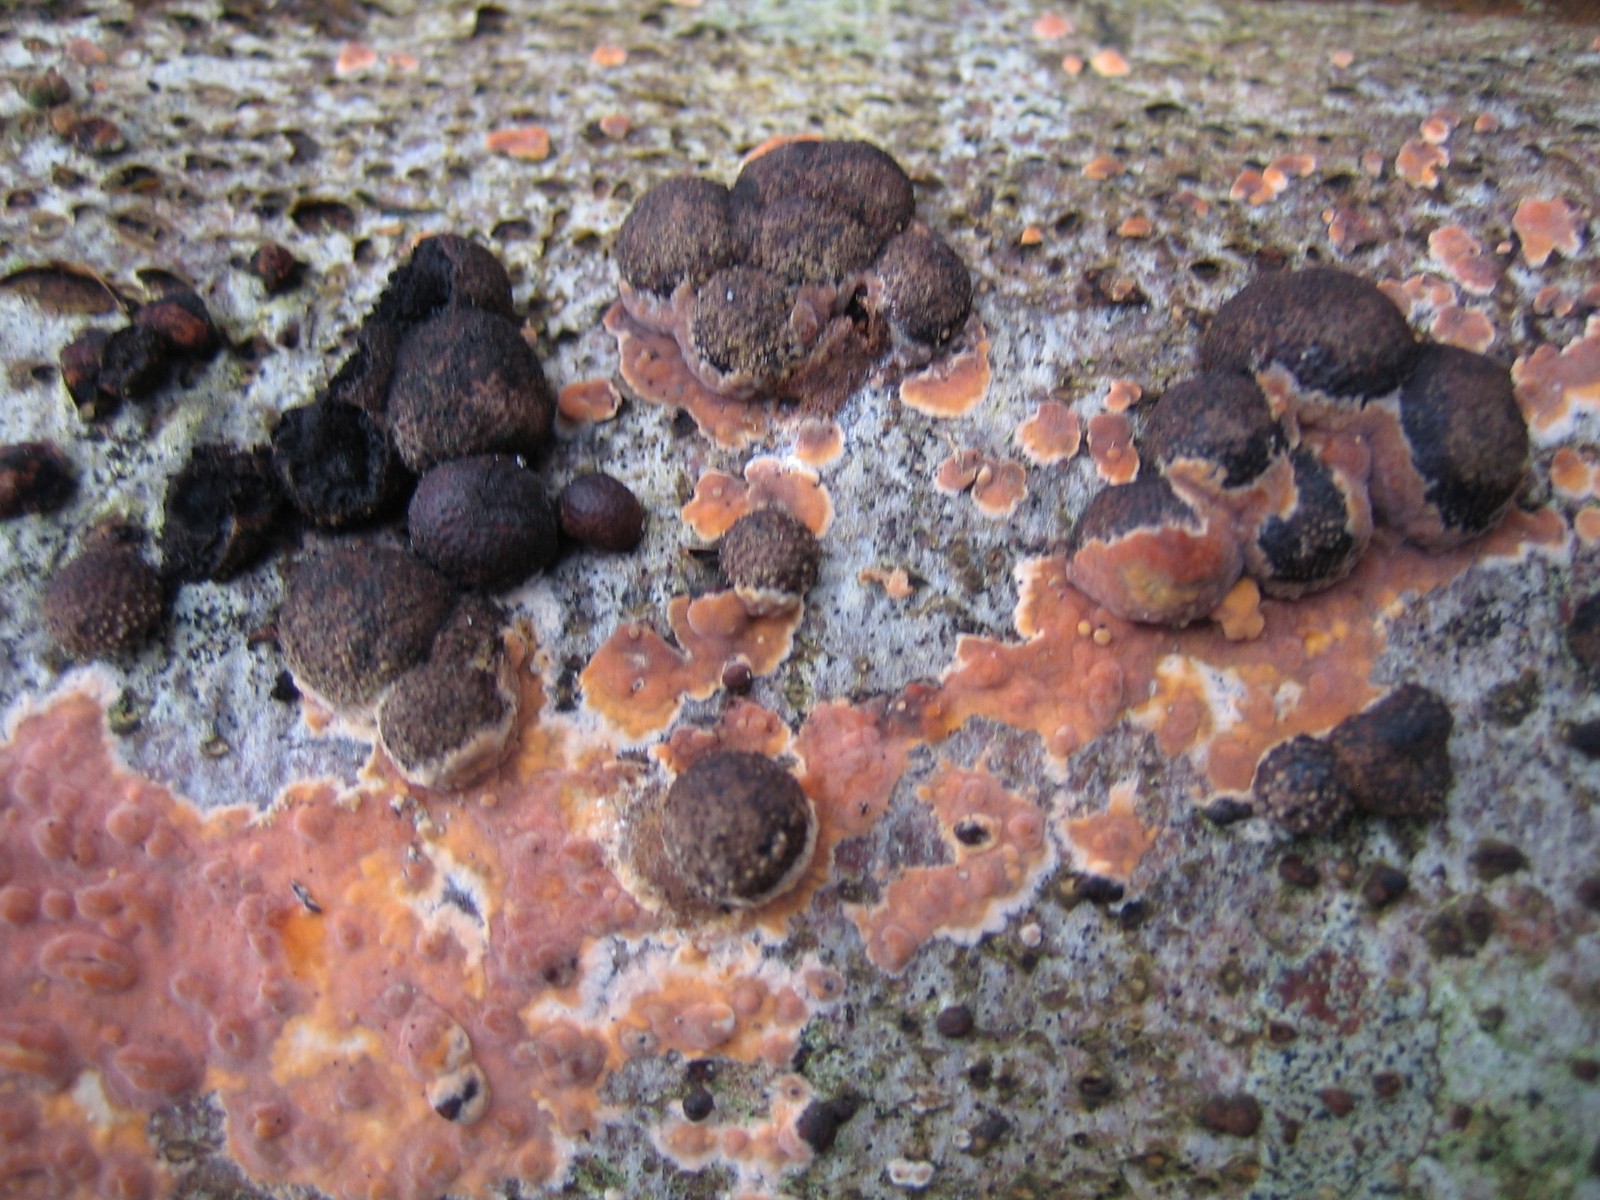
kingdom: Fungi
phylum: Ascomycota
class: Sordariomycetes
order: Xylariales
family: Hypoxylaceae
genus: Hypoxylon
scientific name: Hypoxylon fragiforme
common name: kuljordbær
